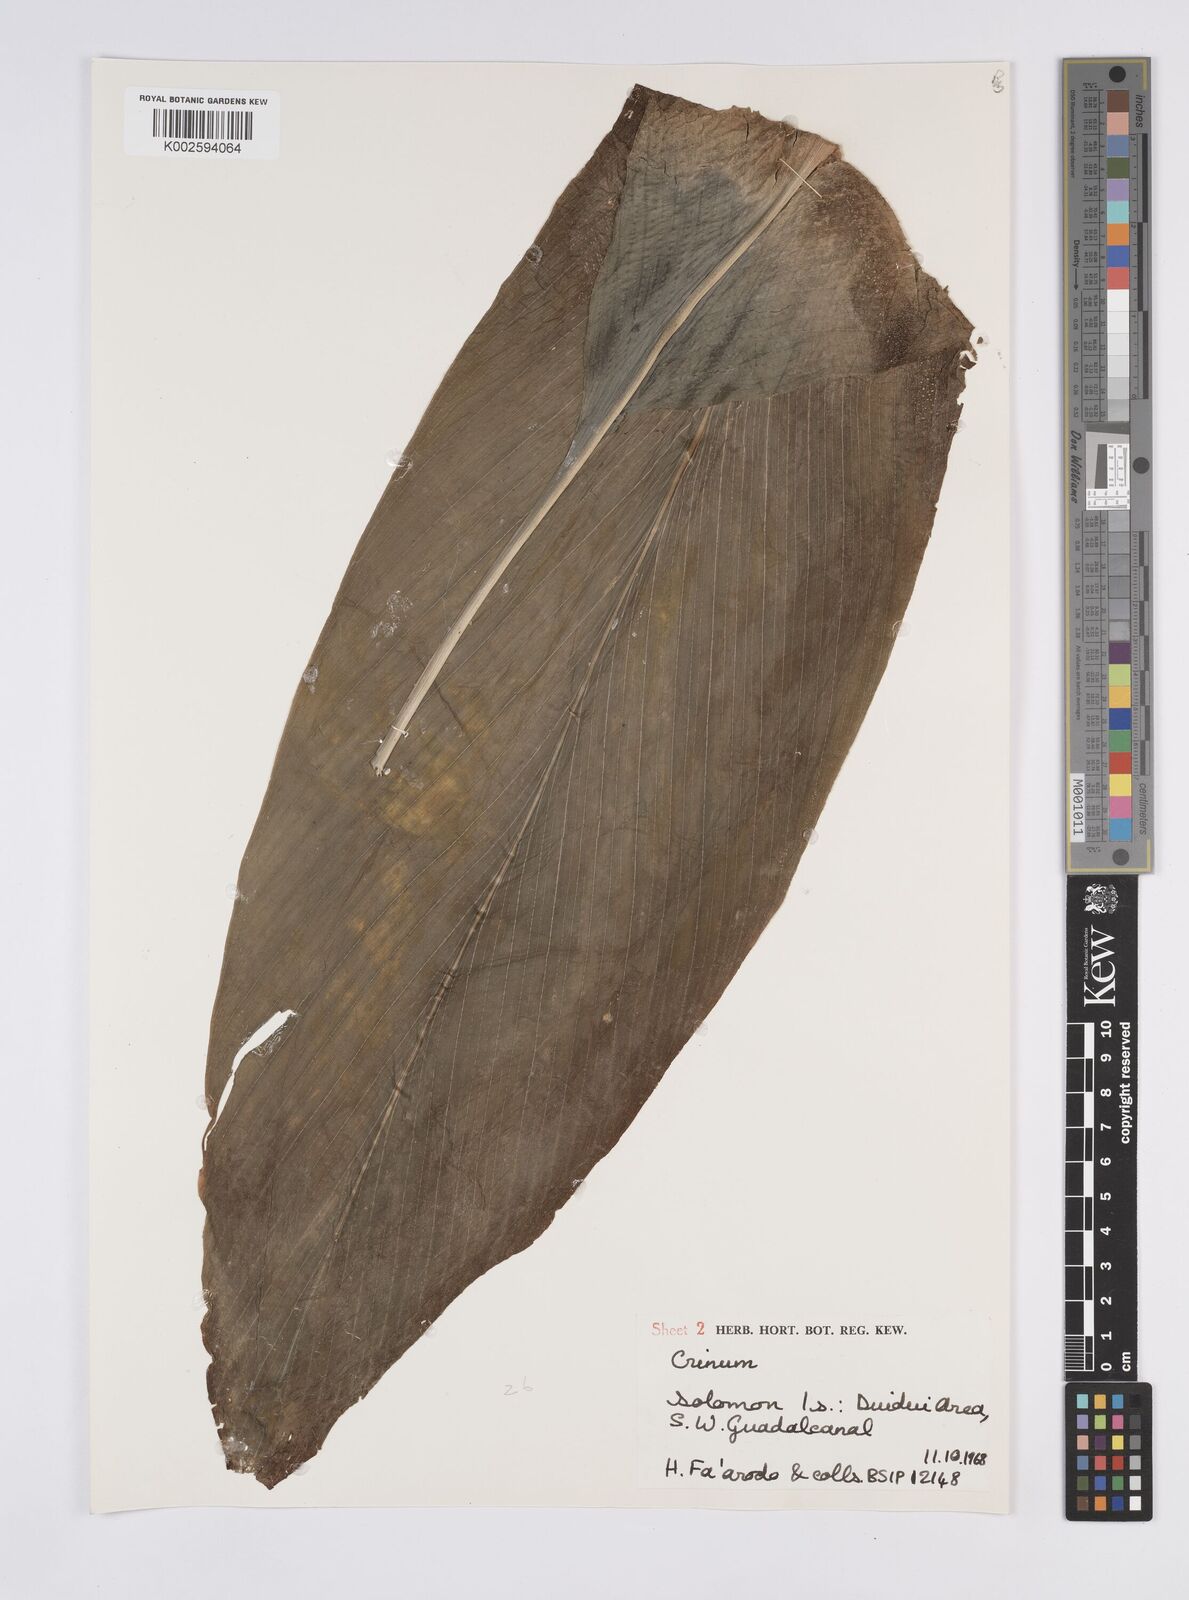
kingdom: Plantae
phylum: Tracheophyta
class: Liliopsida
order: Zingiberales
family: Zingiberaceae
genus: Curcuma
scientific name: Curcuma
